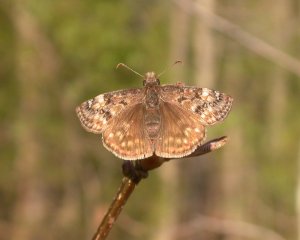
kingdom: Animalia
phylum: Arthropoda
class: Insecta
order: Lepidoptera
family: Hesperiidae
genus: Gesta
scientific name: Gesta
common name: Juvenal's Duskywing
